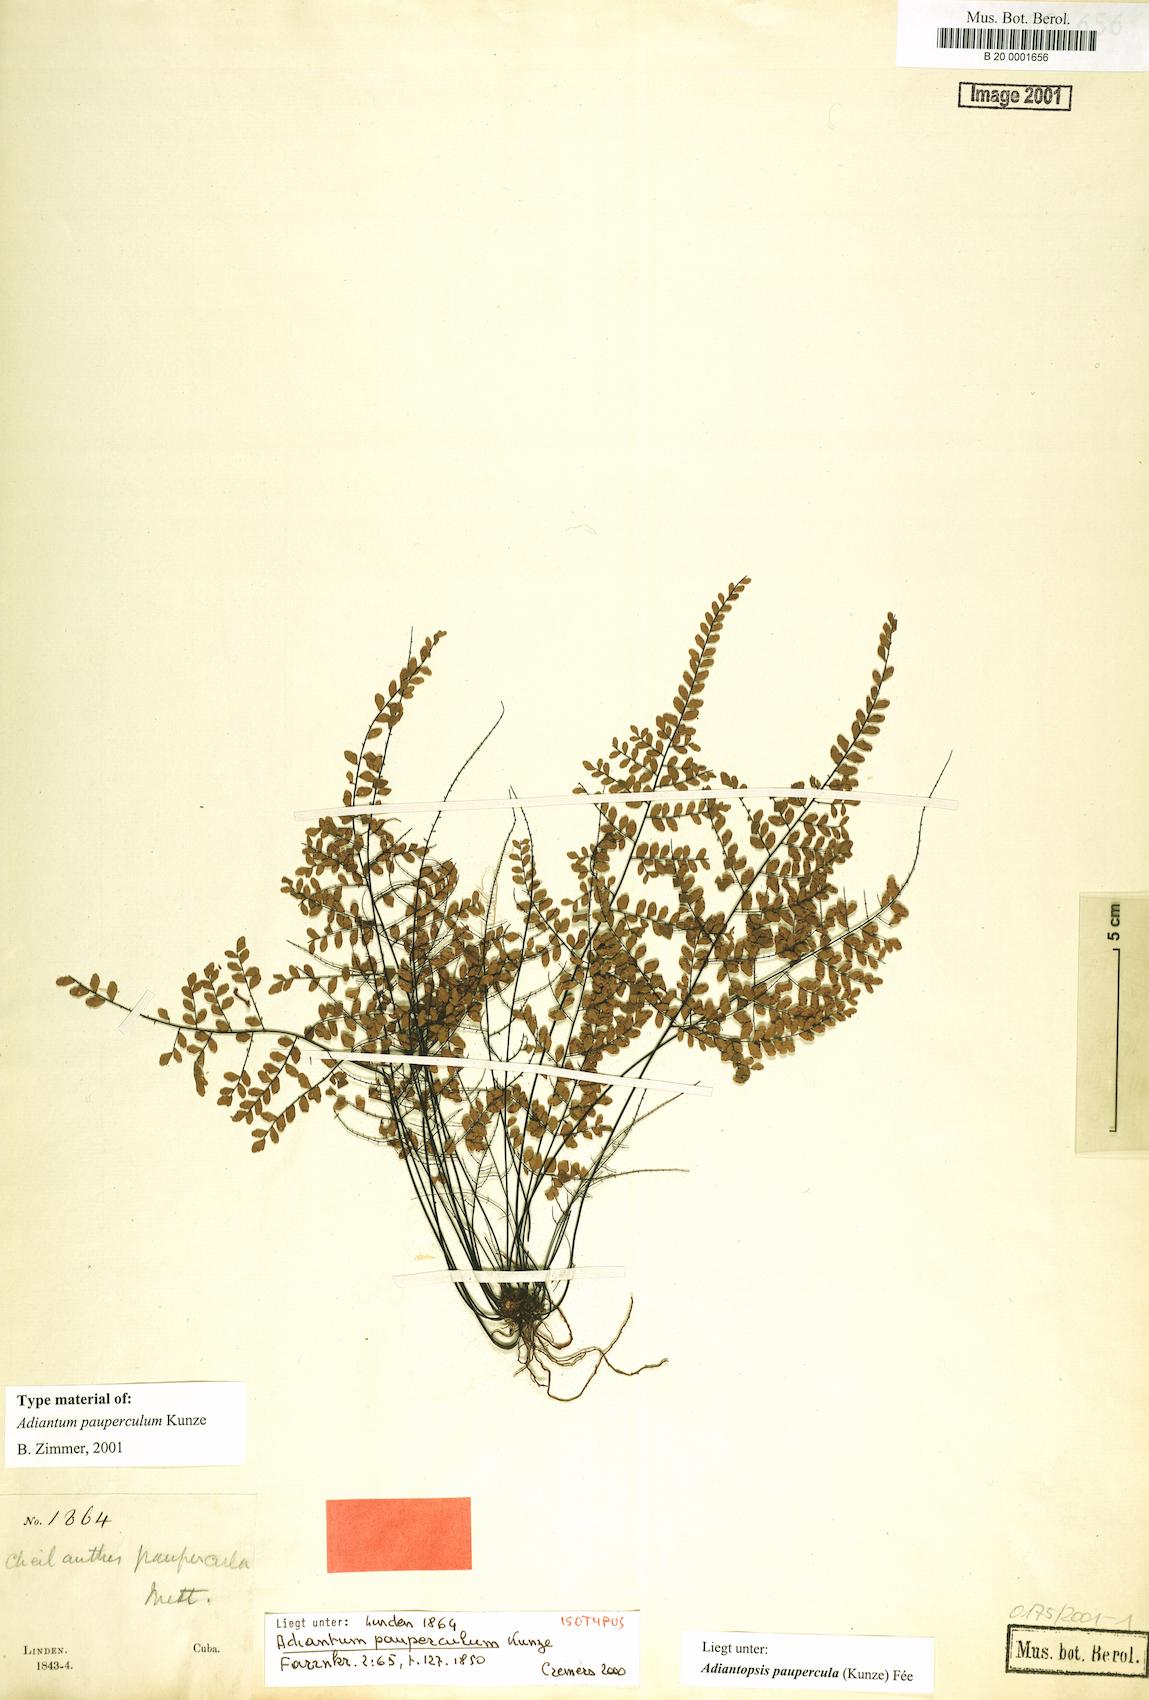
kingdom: Plantae
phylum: Tracheophyta
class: Polypodiopsida
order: Polypodiales
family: Pteridaceae
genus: Adiantopsis
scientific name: Adiantopsis paupercula
